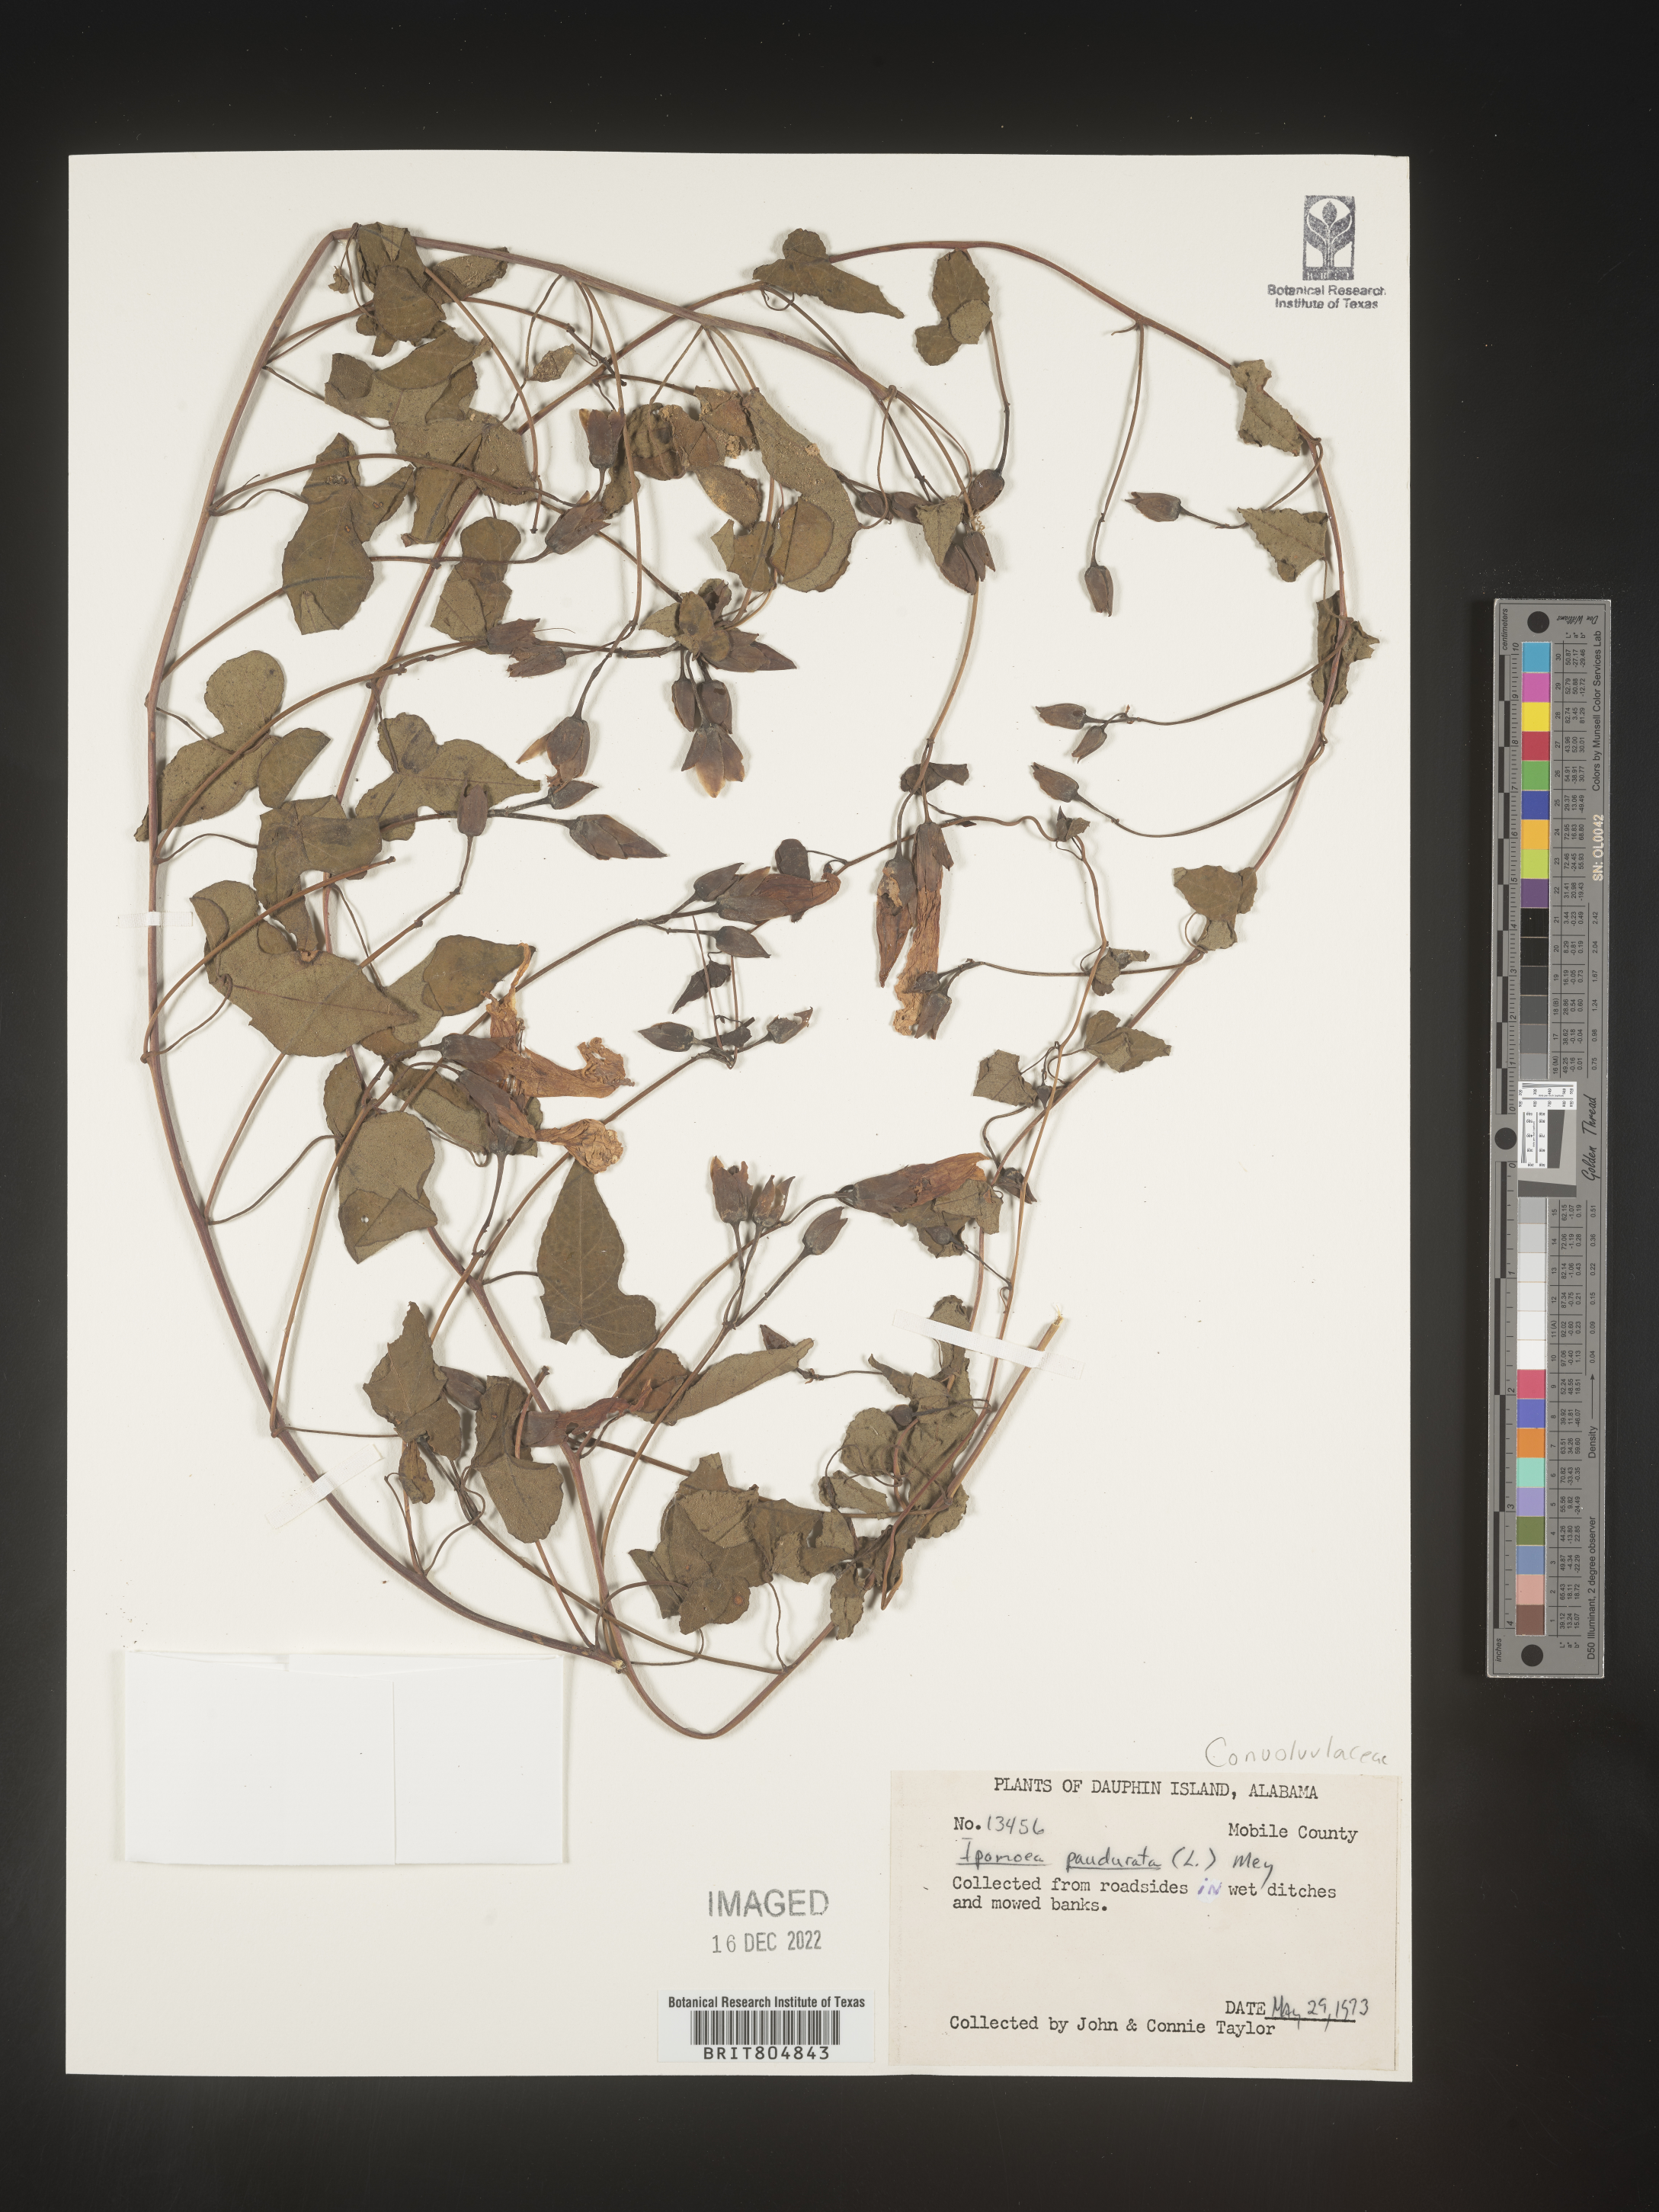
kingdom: Plantae
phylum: Tracheophyta
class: Magnoliopsida
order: Solanales
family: Convolvulaceae
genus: Ipomoea
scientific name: Ipomoea pandurata
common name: Man-of-the-earth
